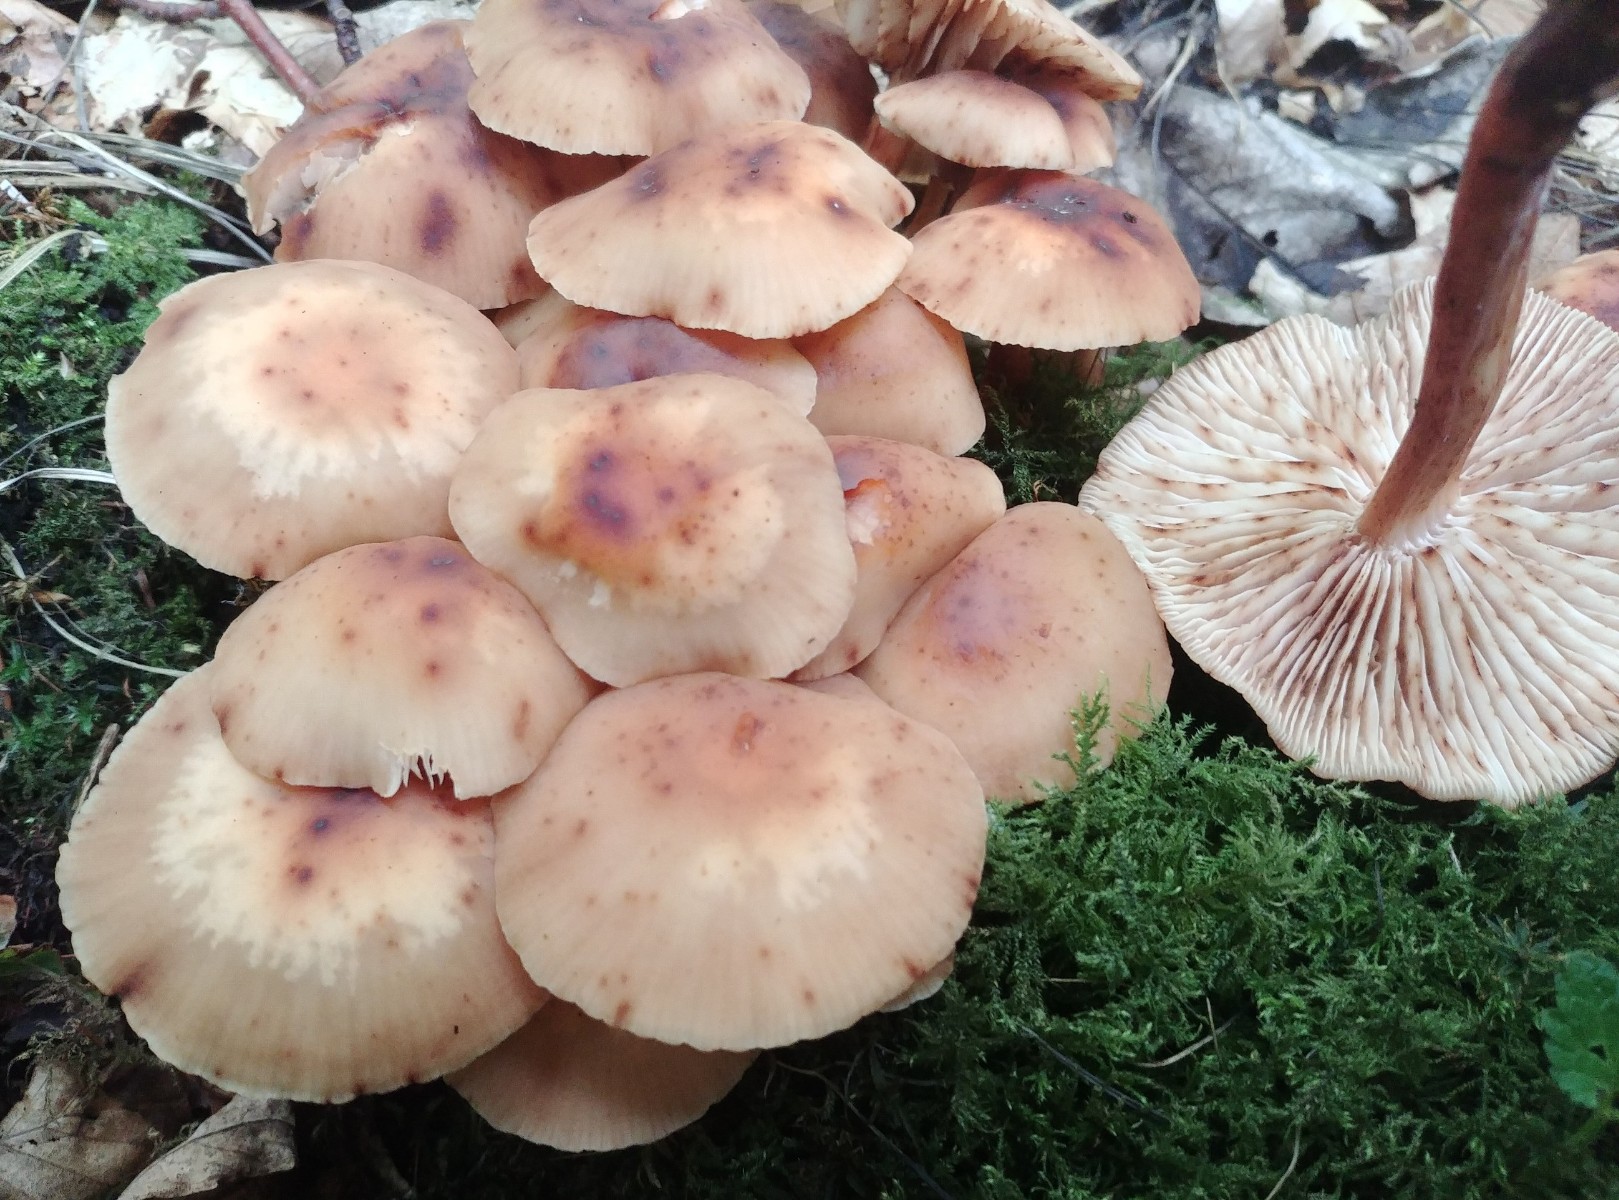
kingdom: Fungi
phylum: Basidiomycota
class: Agaricomycetes
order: Agaricales
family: Omphalotaceae
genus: Gymnopus
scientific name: Gymnopus fusipes
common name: tenstokket fladhat
